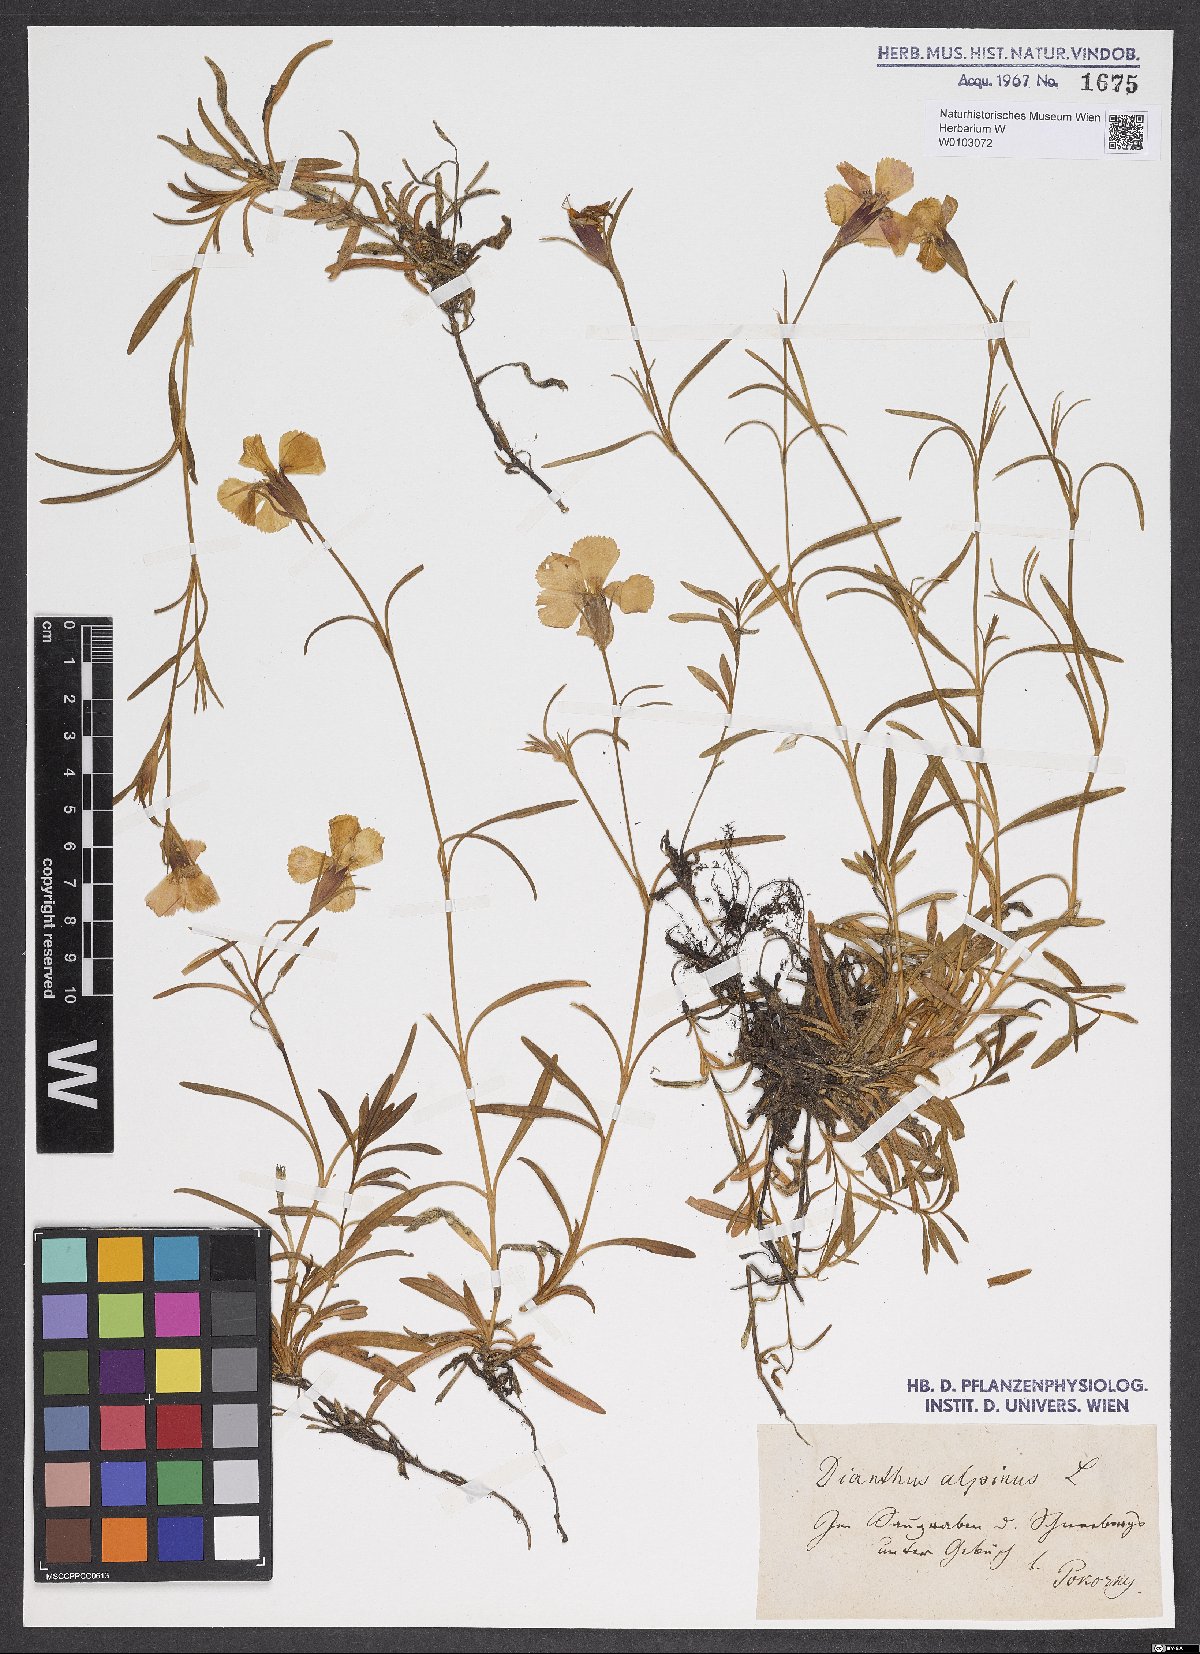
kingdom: Plantae
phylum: Tracheophyta
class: Magnoliopsida
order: Caryophyllales
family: Caryophyllaceae
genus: Dianthus
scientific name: Dianthus alpinus
